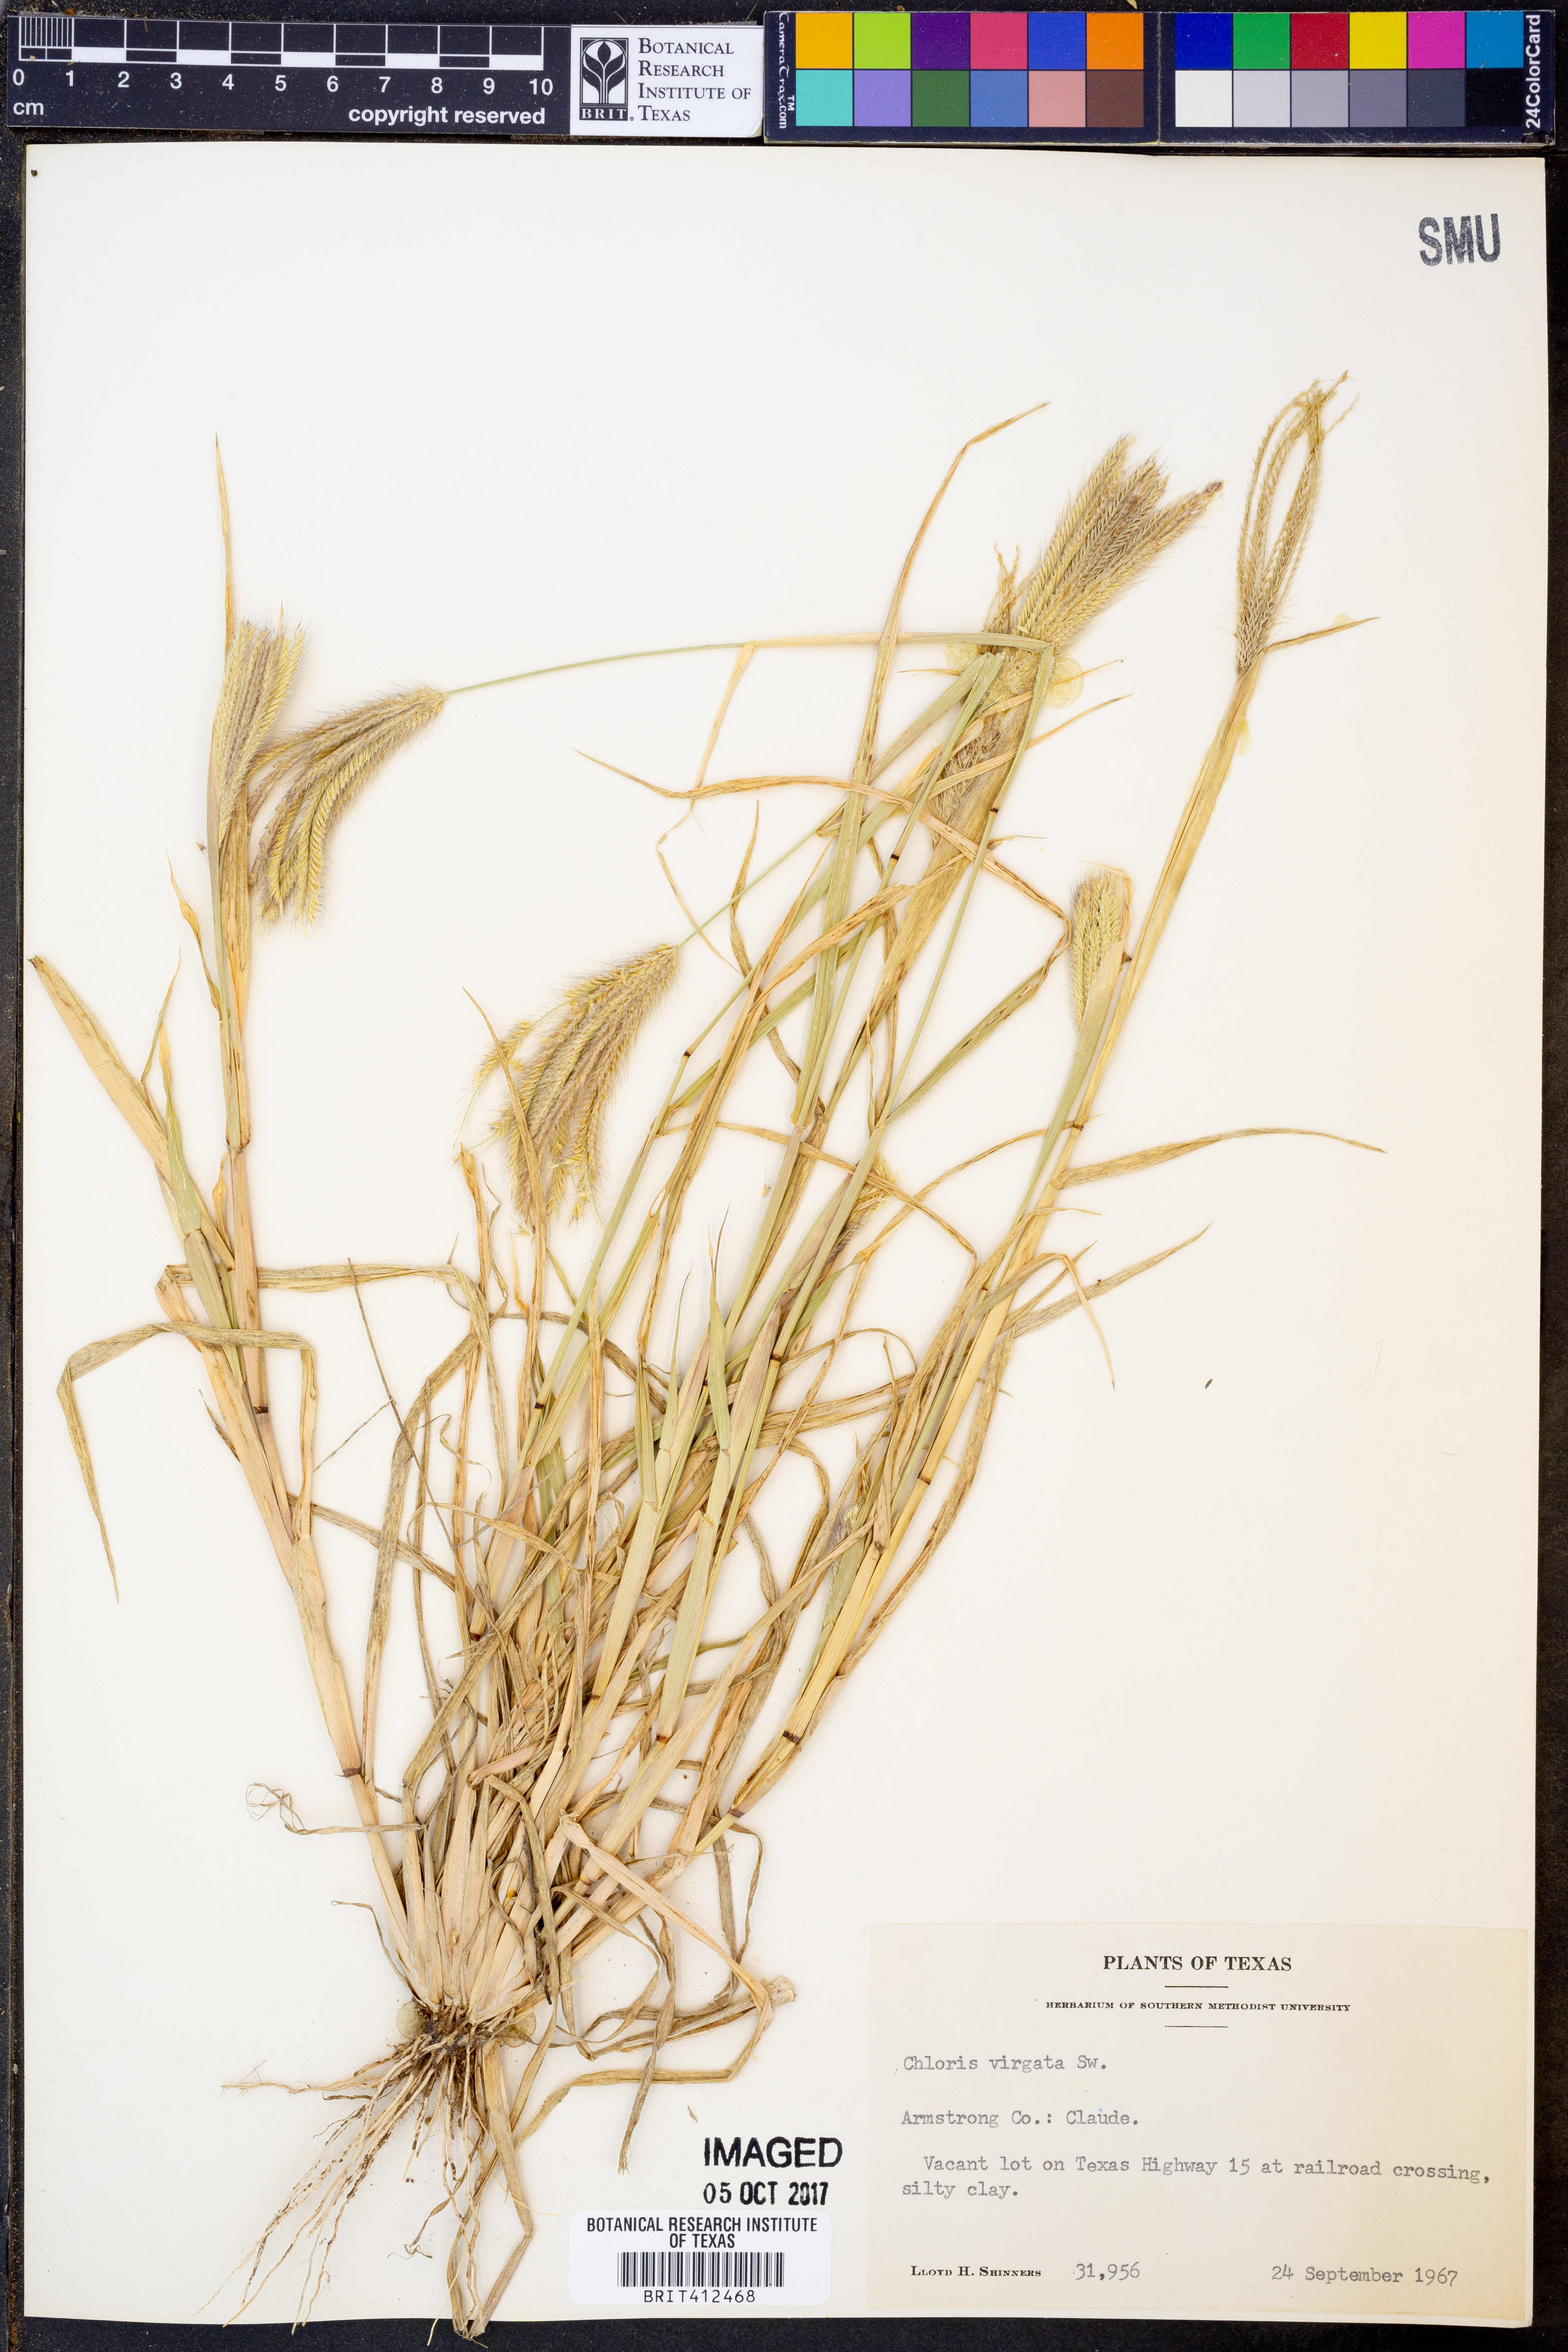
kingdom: Plantae
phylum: Tracheophyta
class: Liliopsida
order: Poales
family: Poaceae
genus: Chloris
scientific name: Chloris virgata
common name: Feathery rhodes-grass
